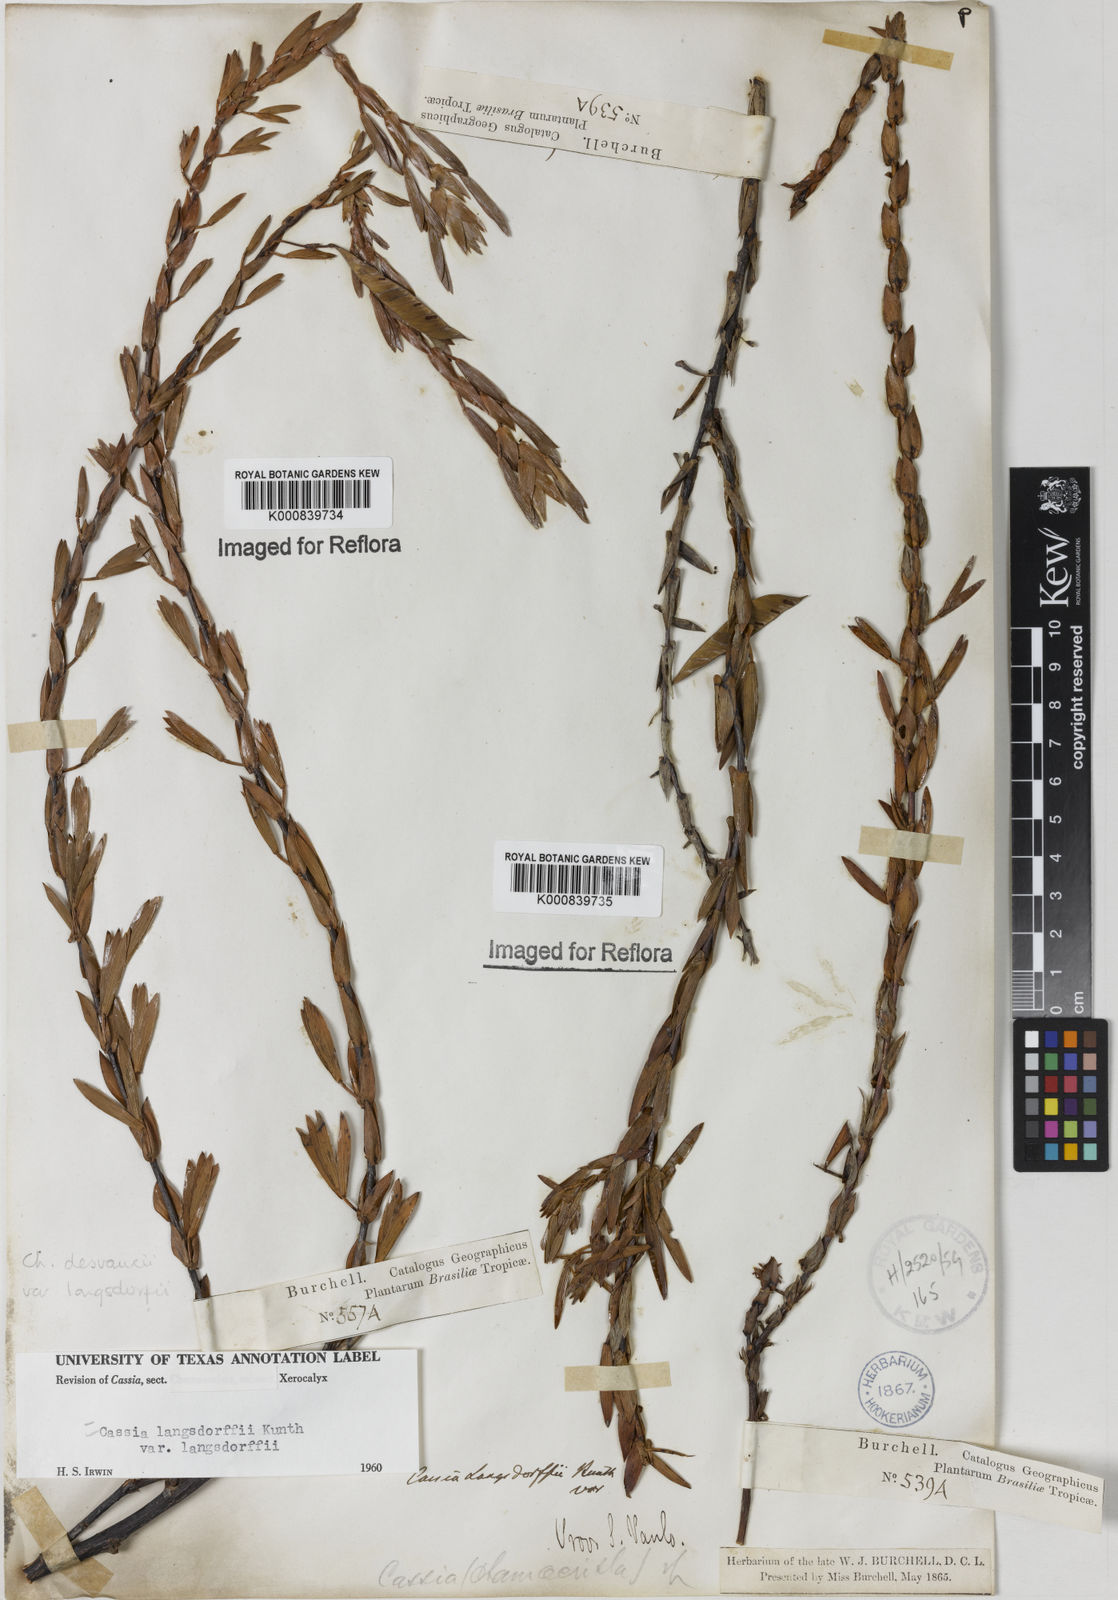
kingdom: Plantae
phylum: Tracheophyta
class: Magnoliopsida
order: Fabales
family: Fabaceae
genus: Chamaecrista
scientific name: Chamaecrista langsdorffii
